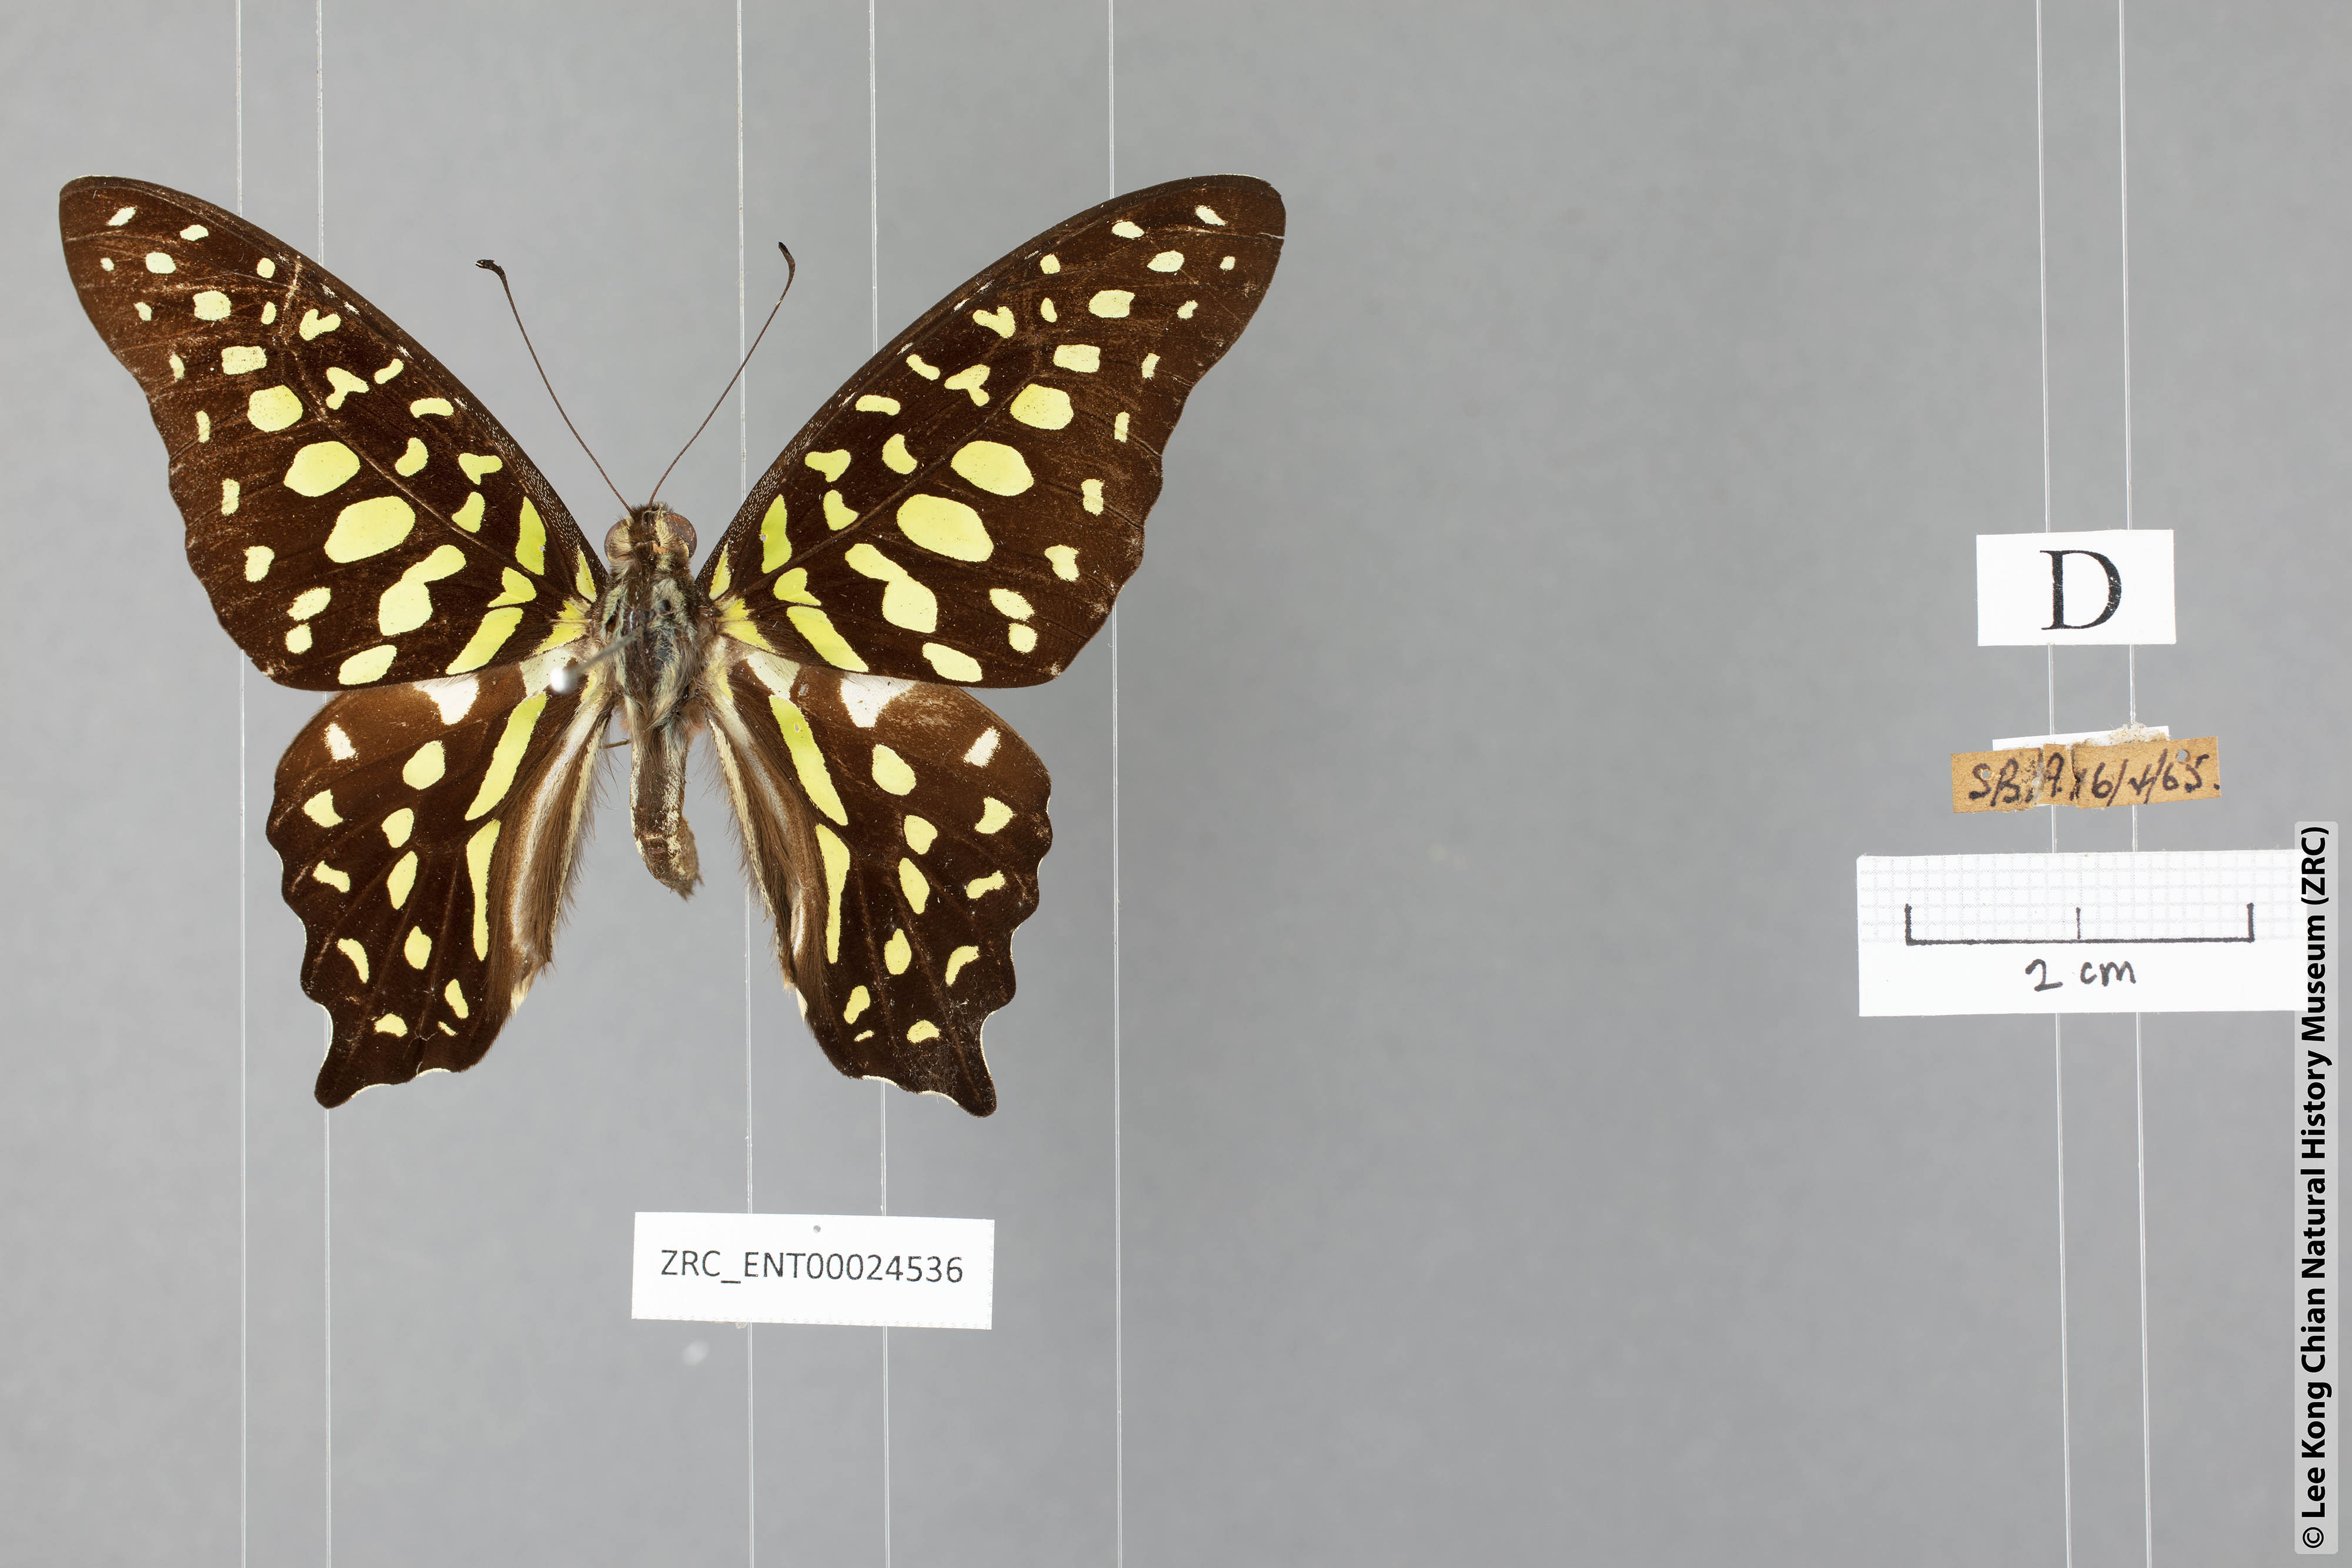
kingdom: Animalia
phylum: Arthropoda
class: Insecta
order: Lepidoptera
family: Papilionidae
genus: Graphium
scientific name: Graphium agamemnon
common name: Tailed jay
